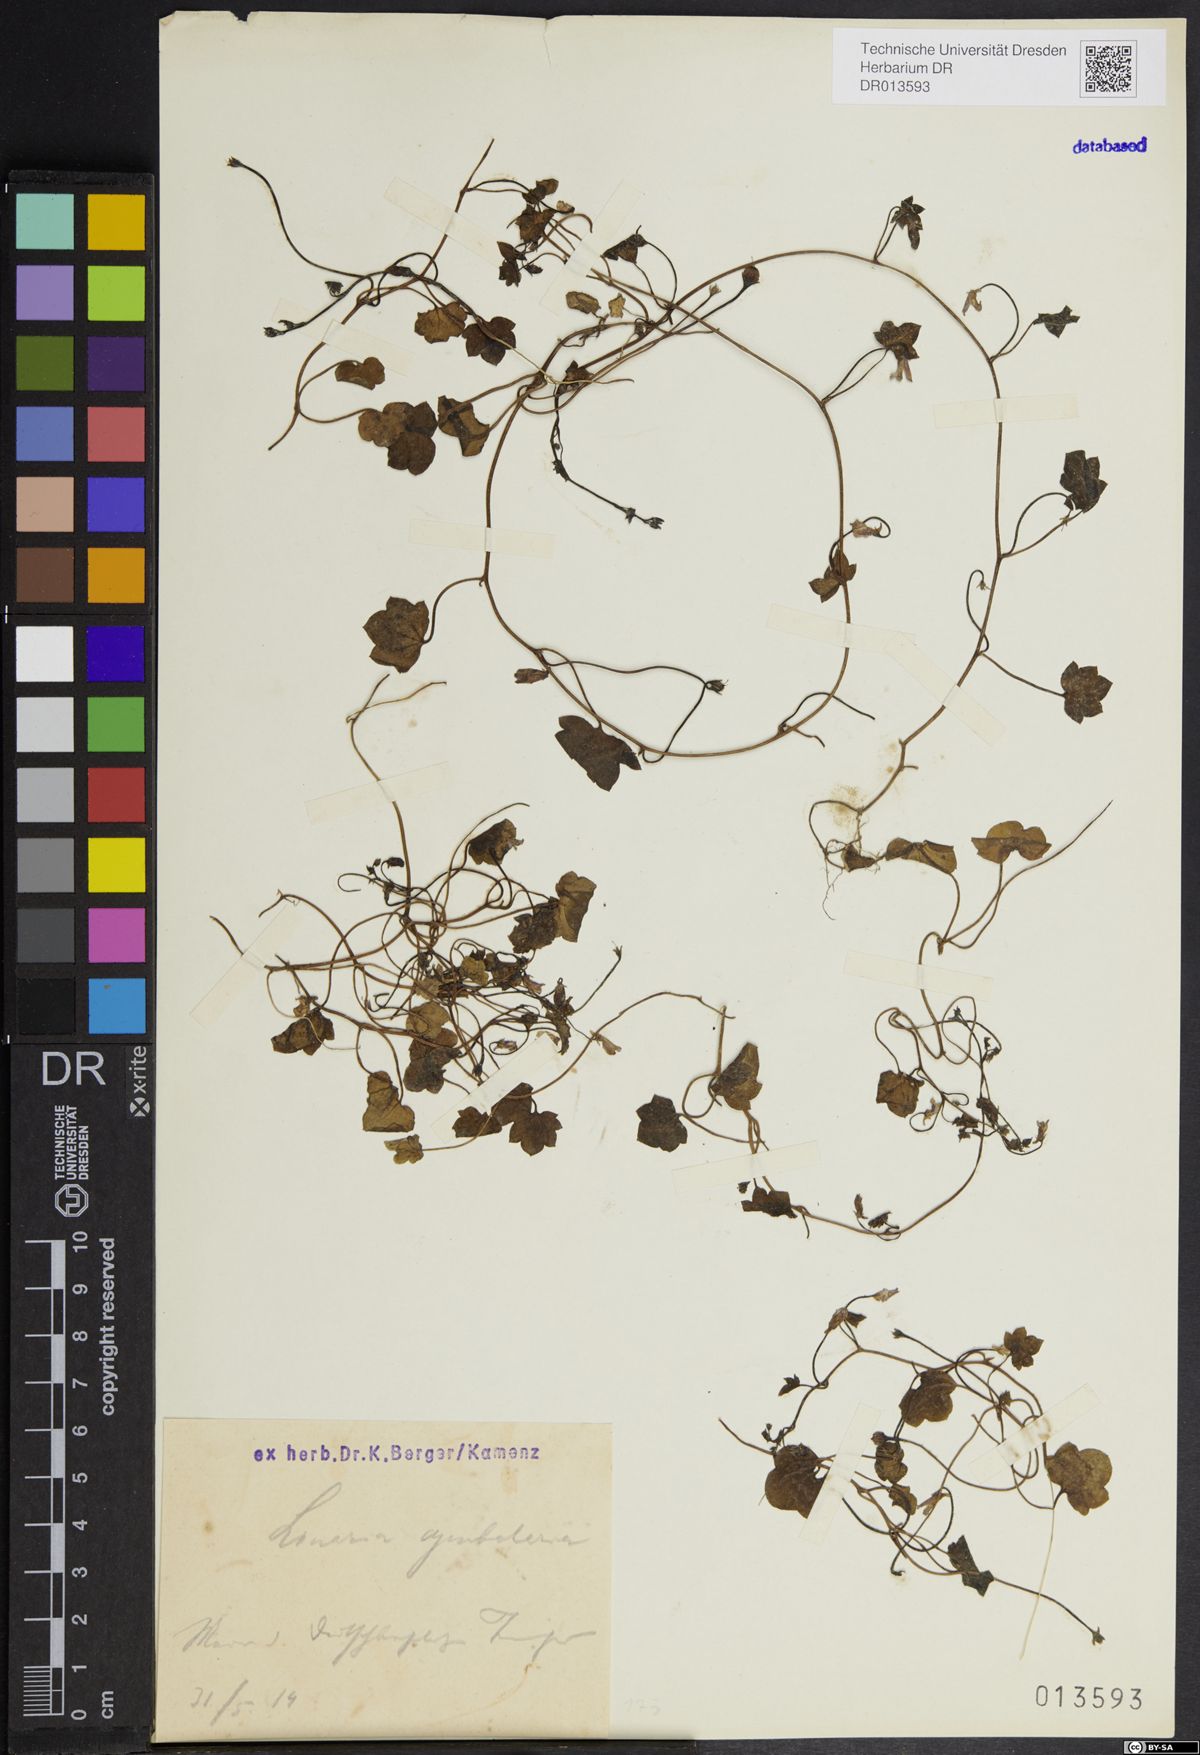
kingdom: Plantae
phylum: Tracheophyta
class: Magnoliopsida
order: Lamiales
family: Plantaginaceae
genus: Cymbalaria
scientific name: Cymbalaria muralis
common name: Ivy-leaved toadflax
